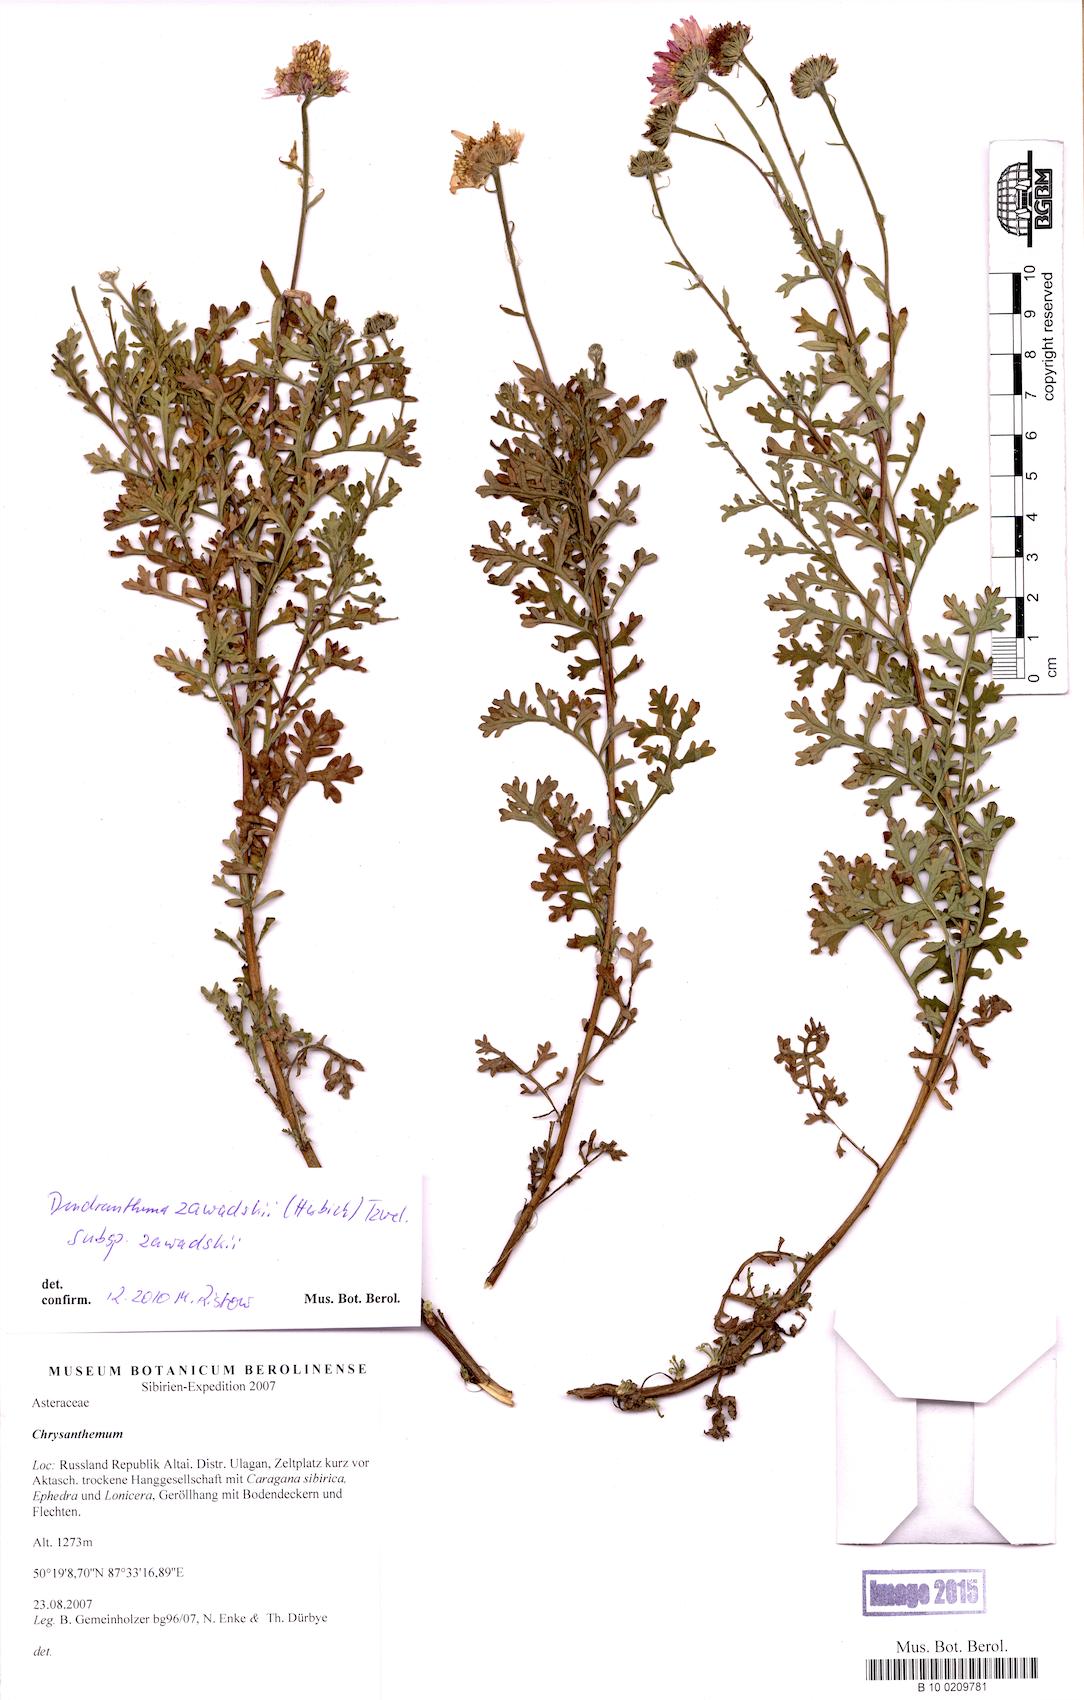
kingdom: Plantae
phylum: Tracheophyta
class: Magnoliopsida
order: Asterales
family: Asteraceae
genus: Chrysanthemum
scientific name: Chrysanthemum sinuatum
